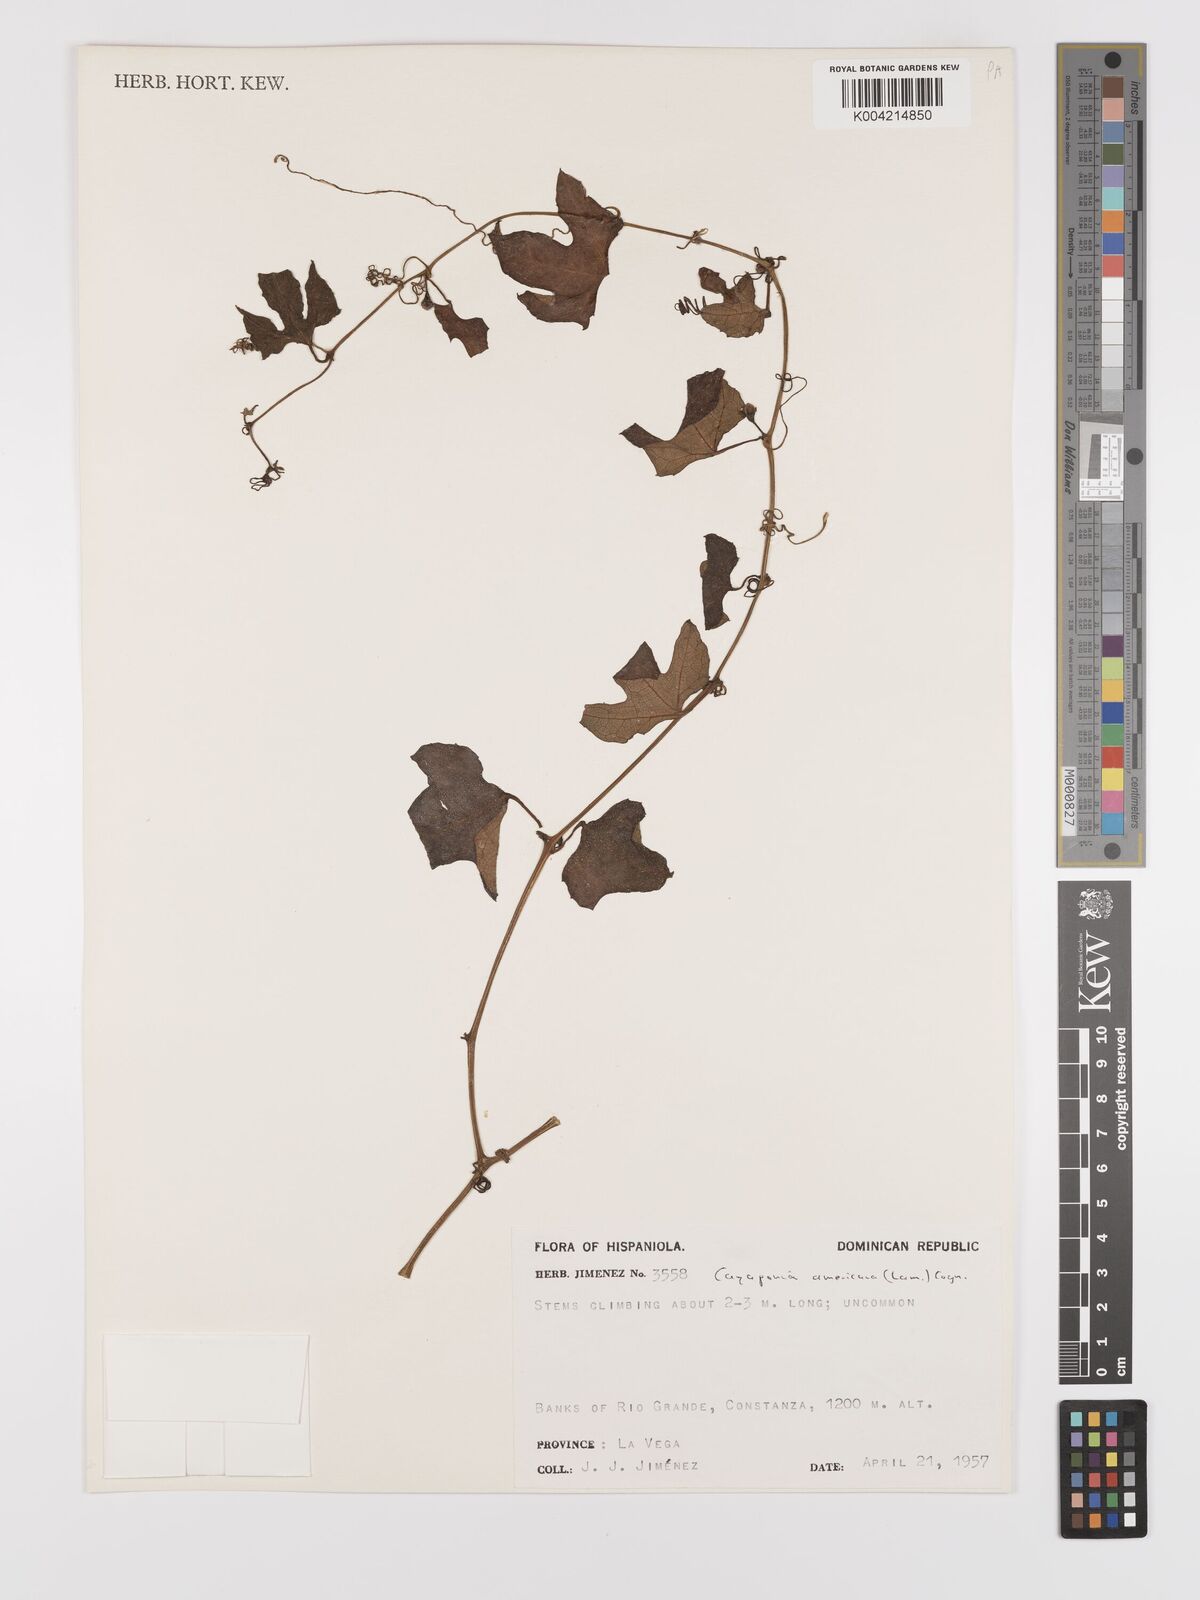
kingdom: Plantae
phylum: Tracheophyta
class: Magnoliopsida
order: Cucurbitales
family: Cucurbitaceae
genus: Cayaponia
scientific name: Cayaponia americana
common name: American melonleaf
